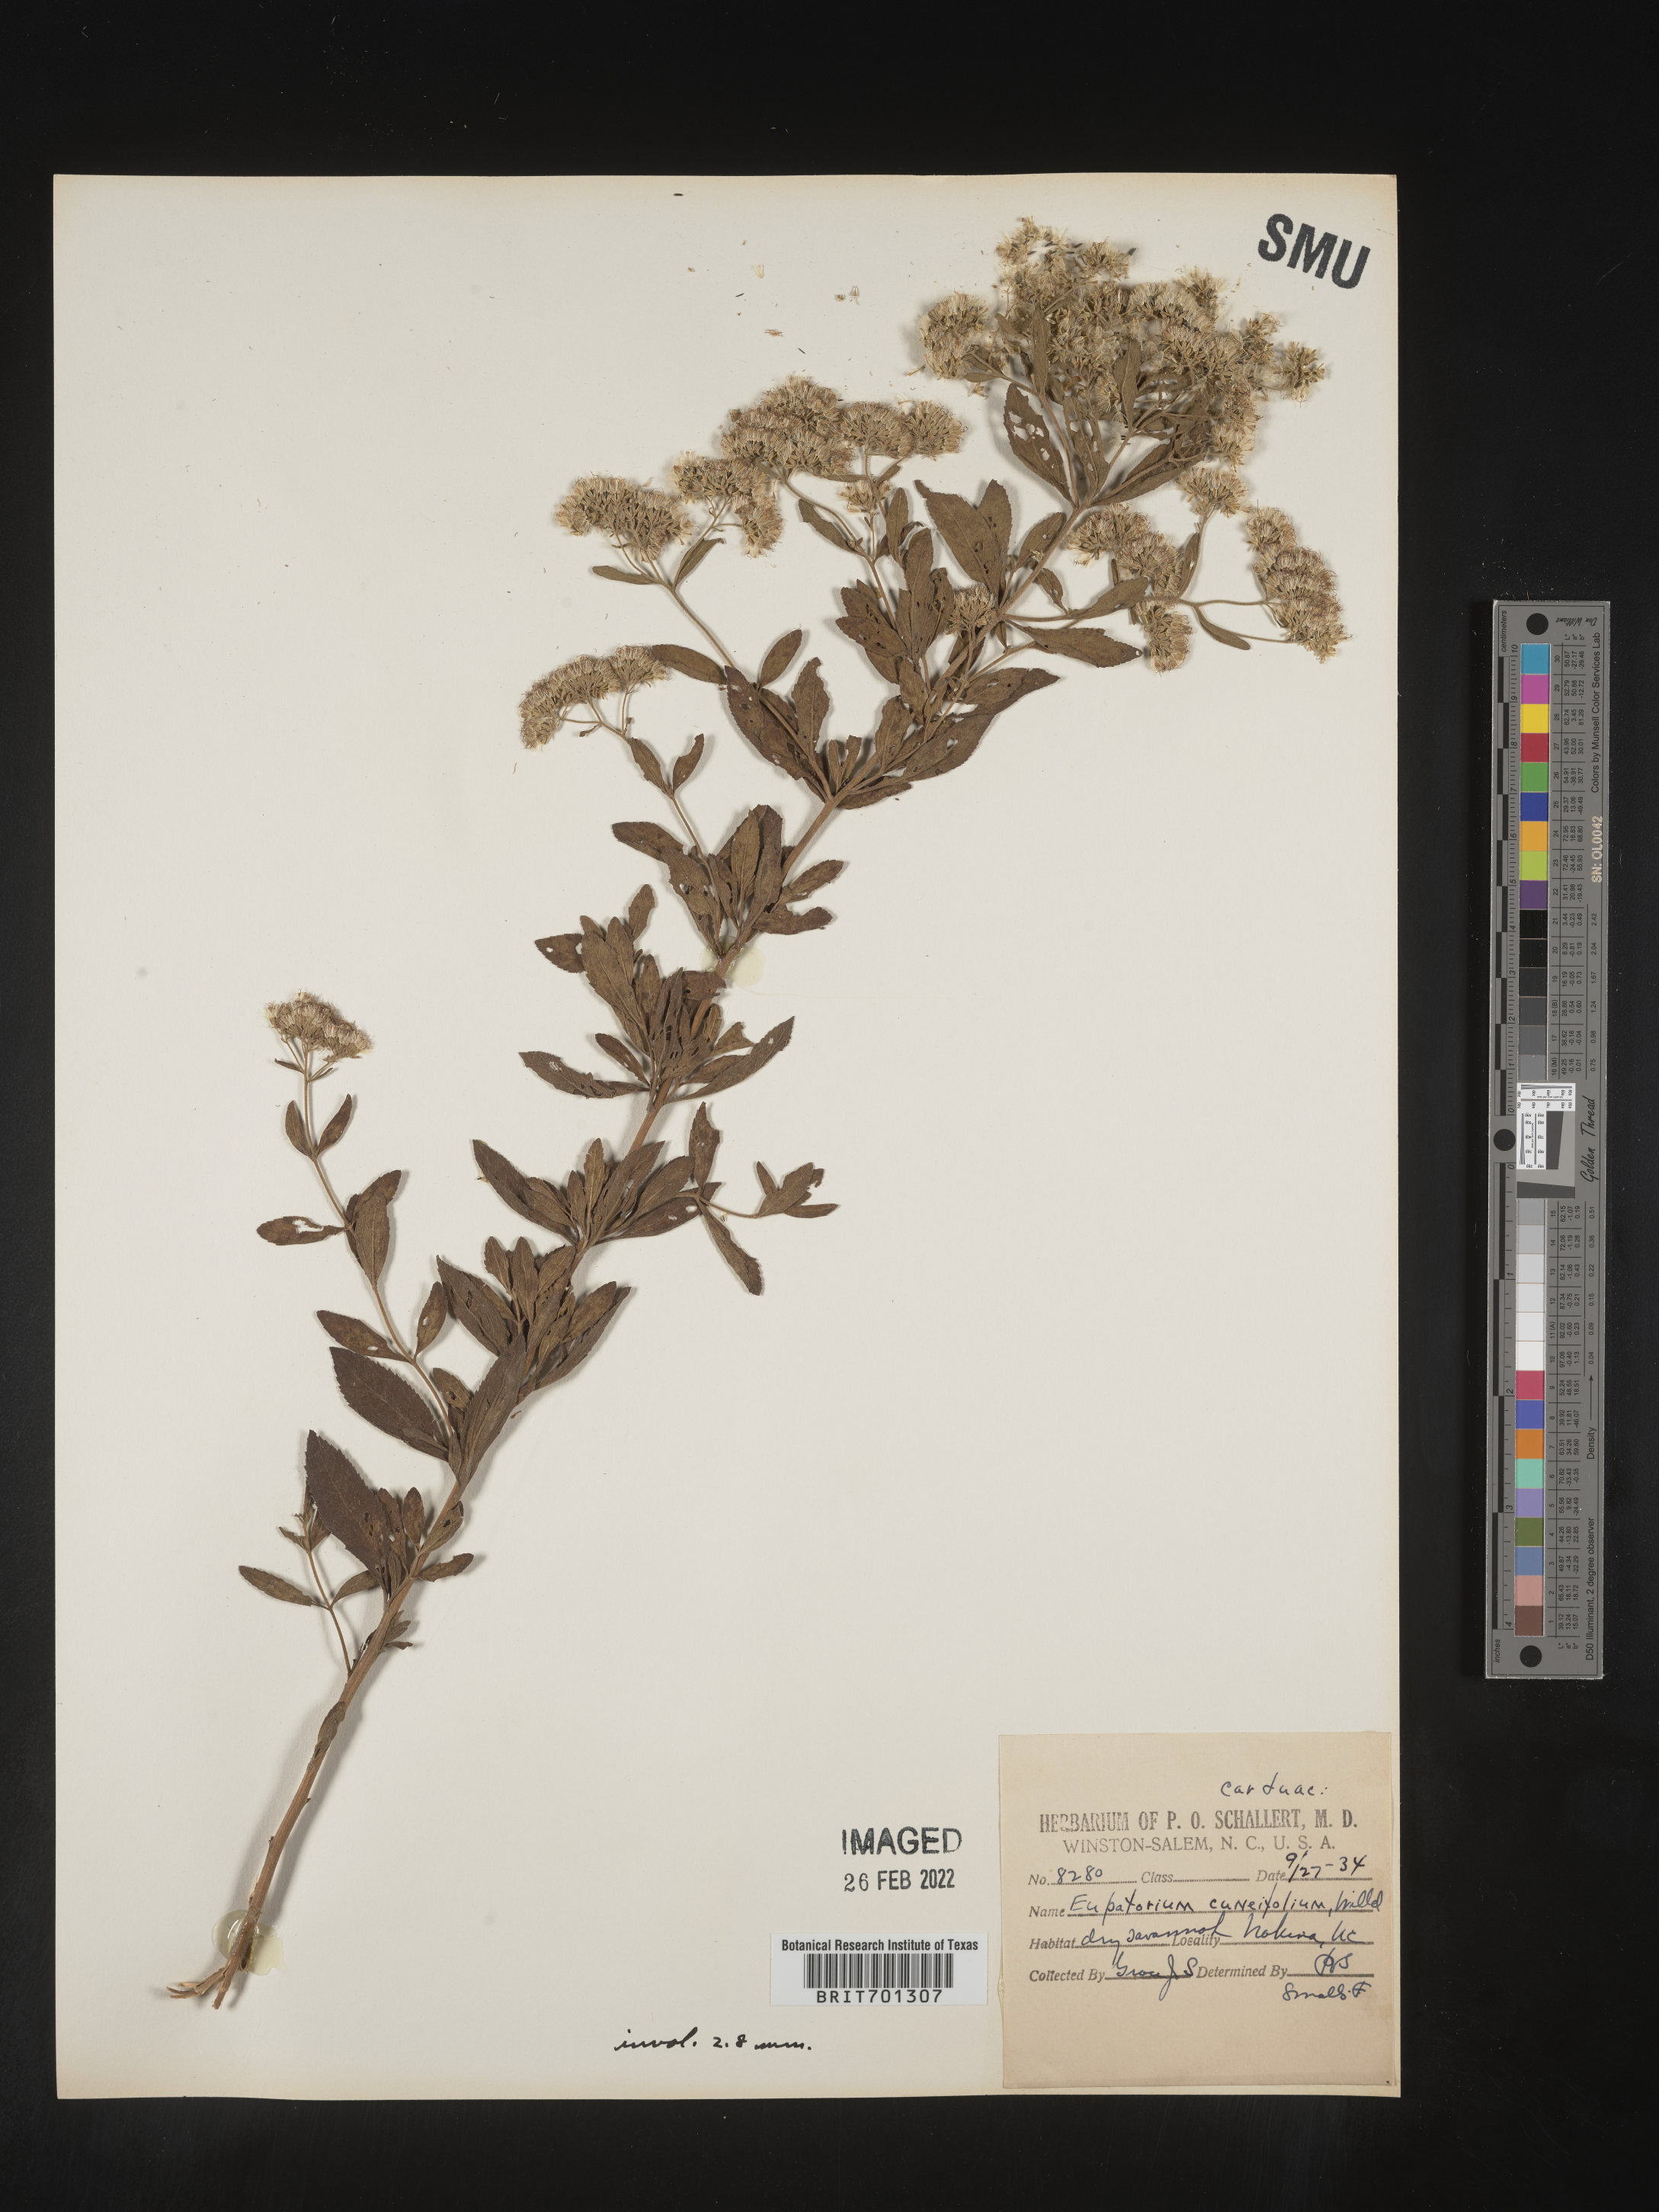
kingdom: Plantae
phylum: Tracheophyta
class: Magnoliopsida
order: Asterales
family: Asteraceae
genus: Eupatorium
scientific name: Eupatorium linearifolium
